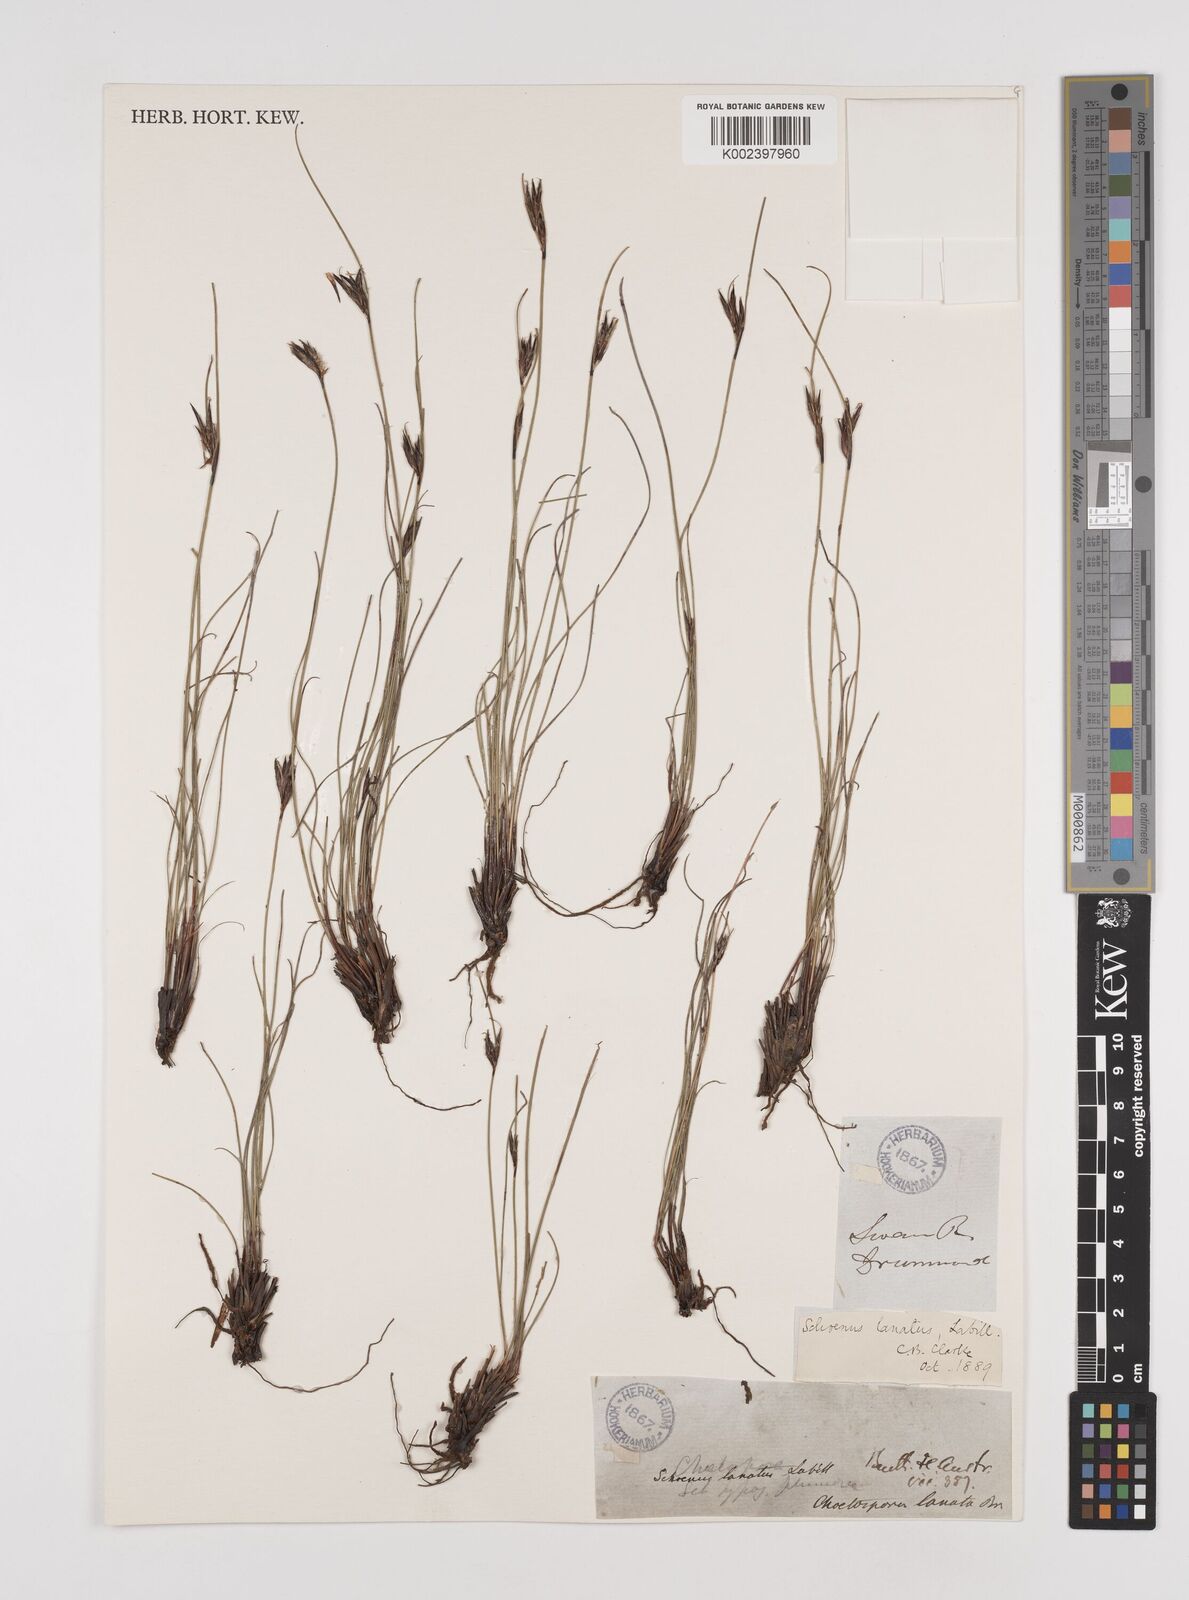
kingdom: Plantae
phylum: Tracheophyta
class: Liliopsida
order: Poales
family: Cyperaceae
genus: Schoenus
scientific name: Schoenus lanatus
